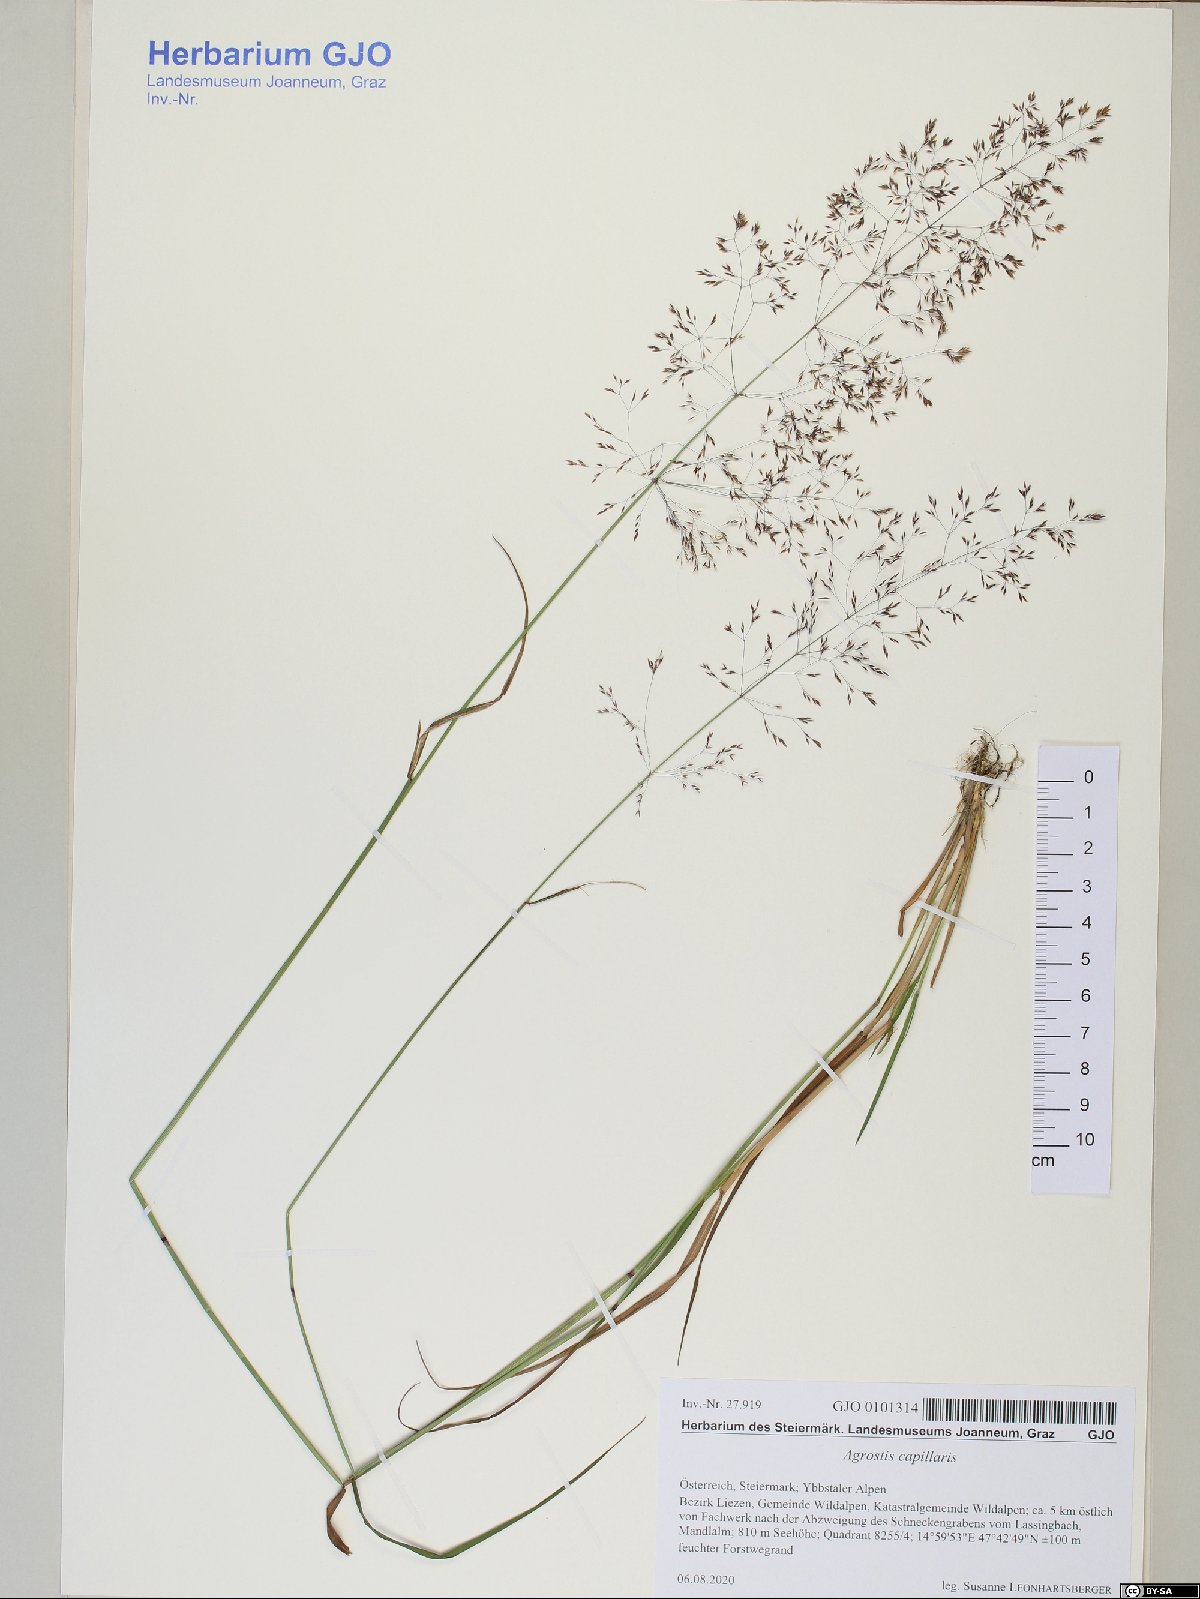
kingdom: Plantae
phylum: Tracheophyta
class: Liliopsida
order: Poales
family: Poaceae
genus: Agrostis
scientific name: Agrostis capillaris
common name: Colonial bentgrass
